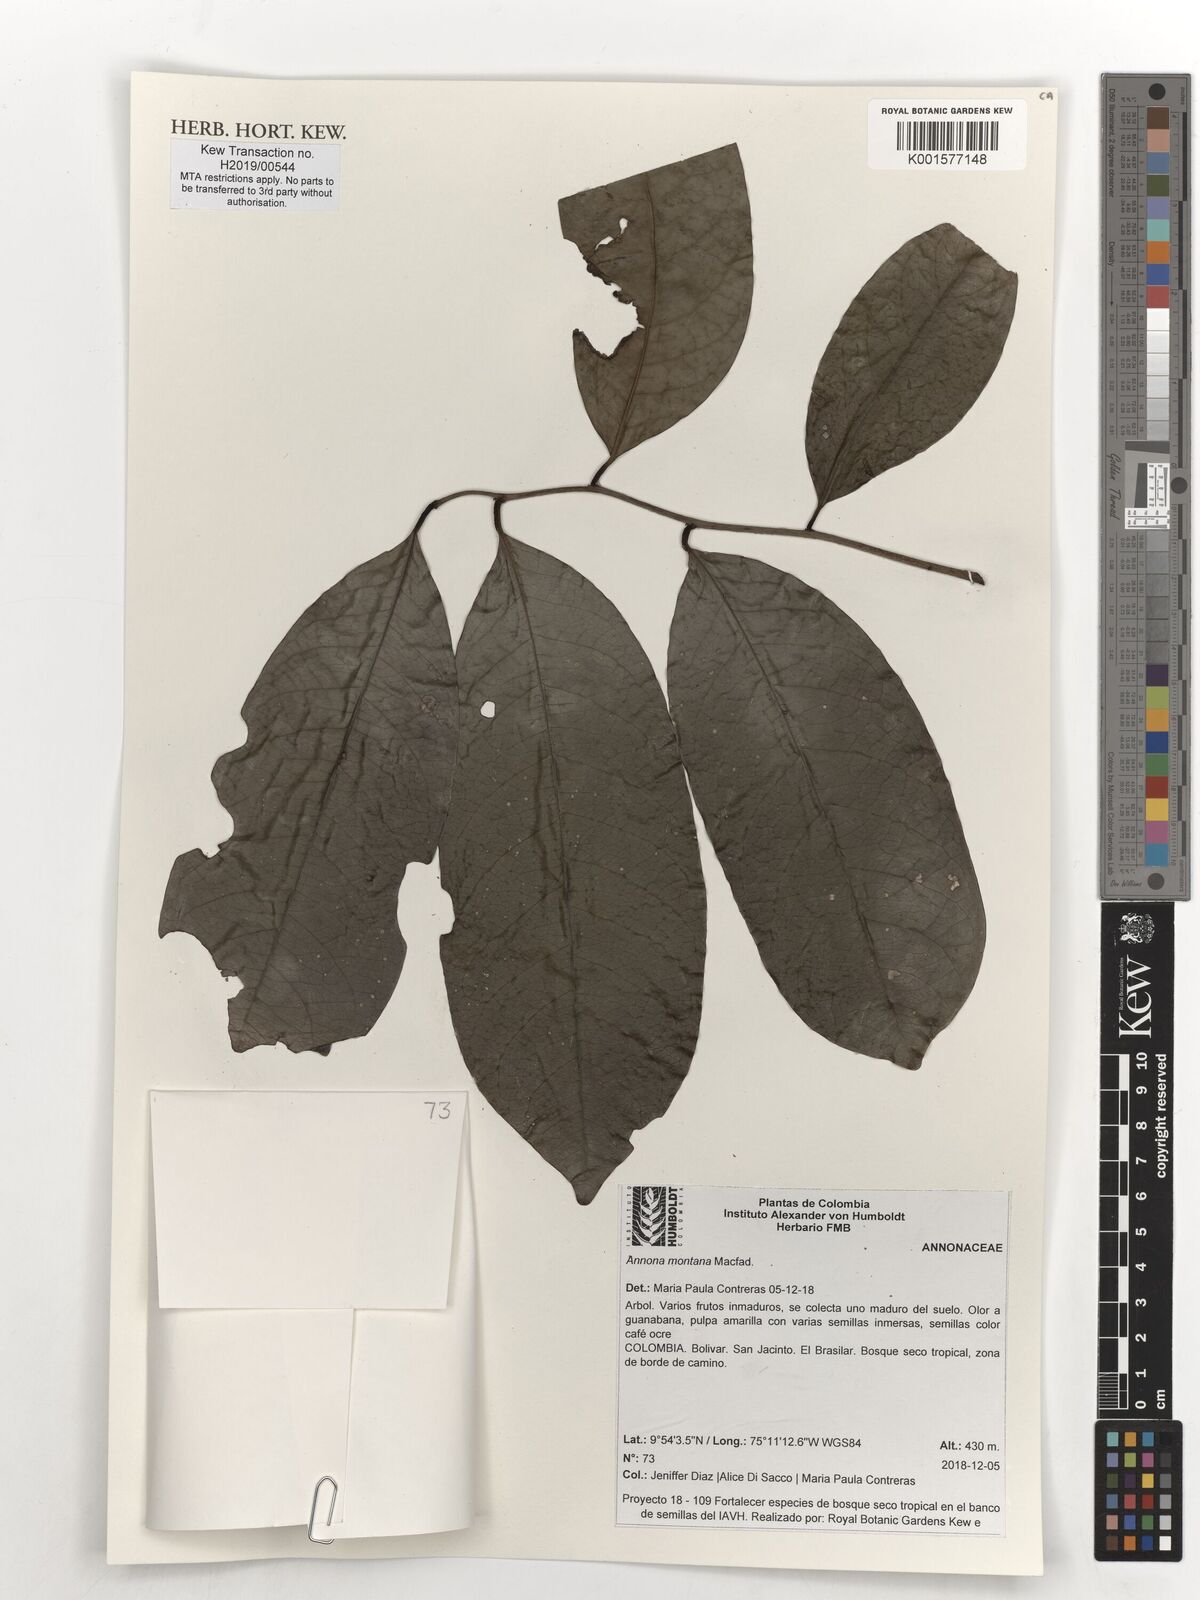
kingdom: Plantae
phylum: Tracheophyta
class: Magnoliopsida
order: Magnoliales
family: Annonaceae
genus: Annona
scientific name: Annona montana
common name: Mountain soursop
